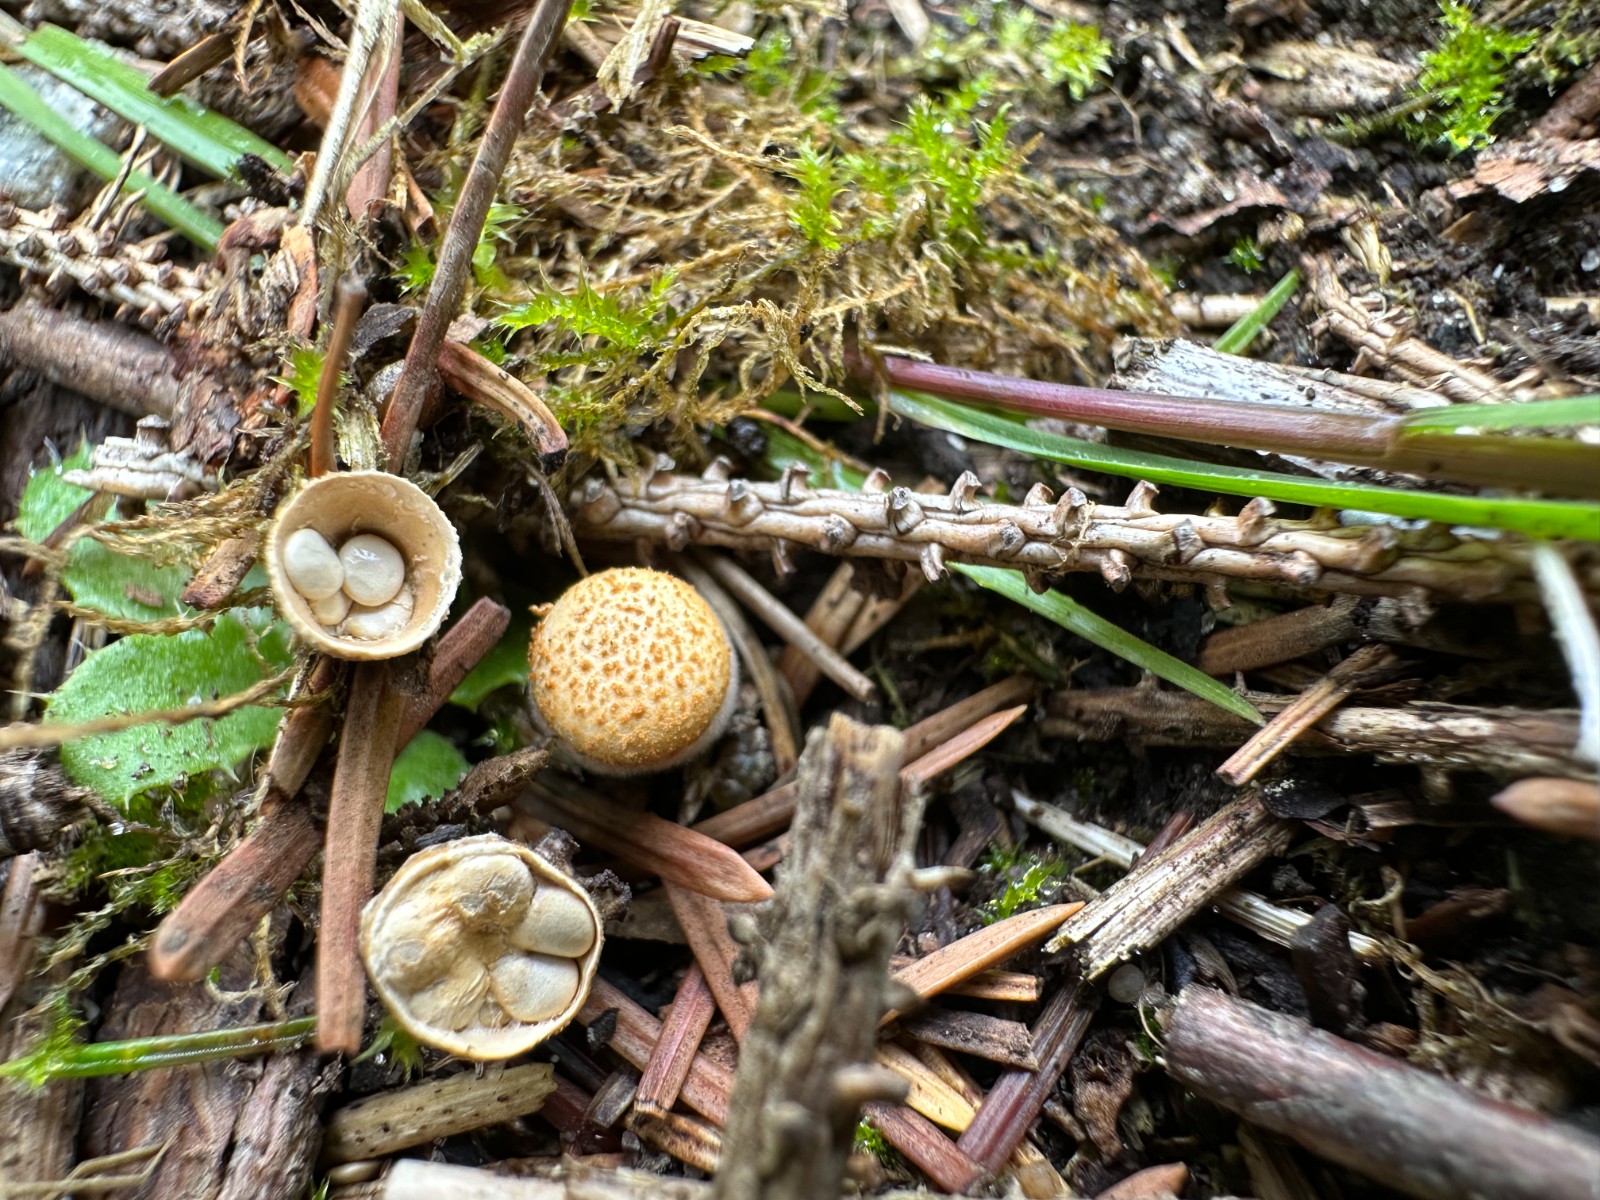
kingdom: Fungi
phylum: Basidiomycota
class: Agaricomycetes
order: Agaricales
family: Nidulariaceae
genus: Crucibulum
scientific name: Crucibulum crucibuliforme
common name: krukkesvamp
